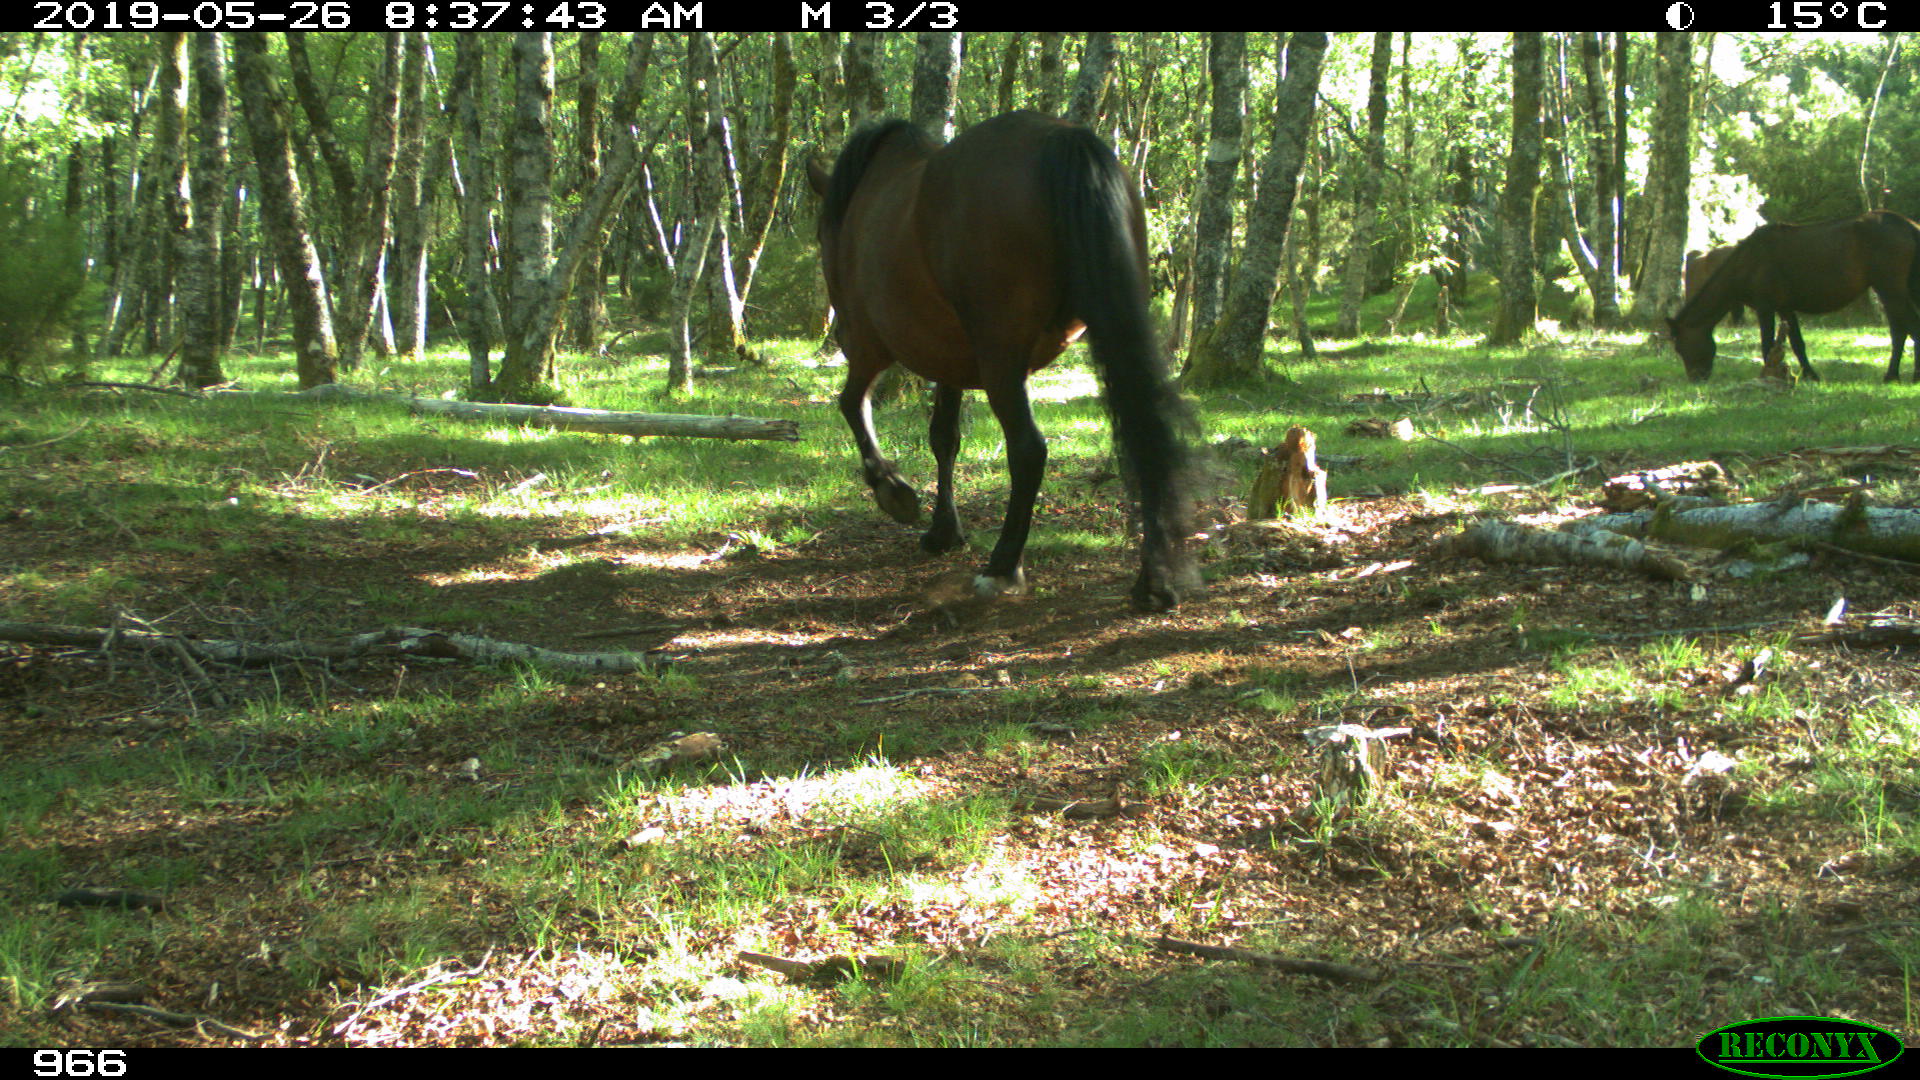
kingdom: Animalia
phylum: Chordata
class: Mammalia
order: Perissodactyla
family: Equidae
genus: Equus
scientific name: Equus caballus
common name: Horse
